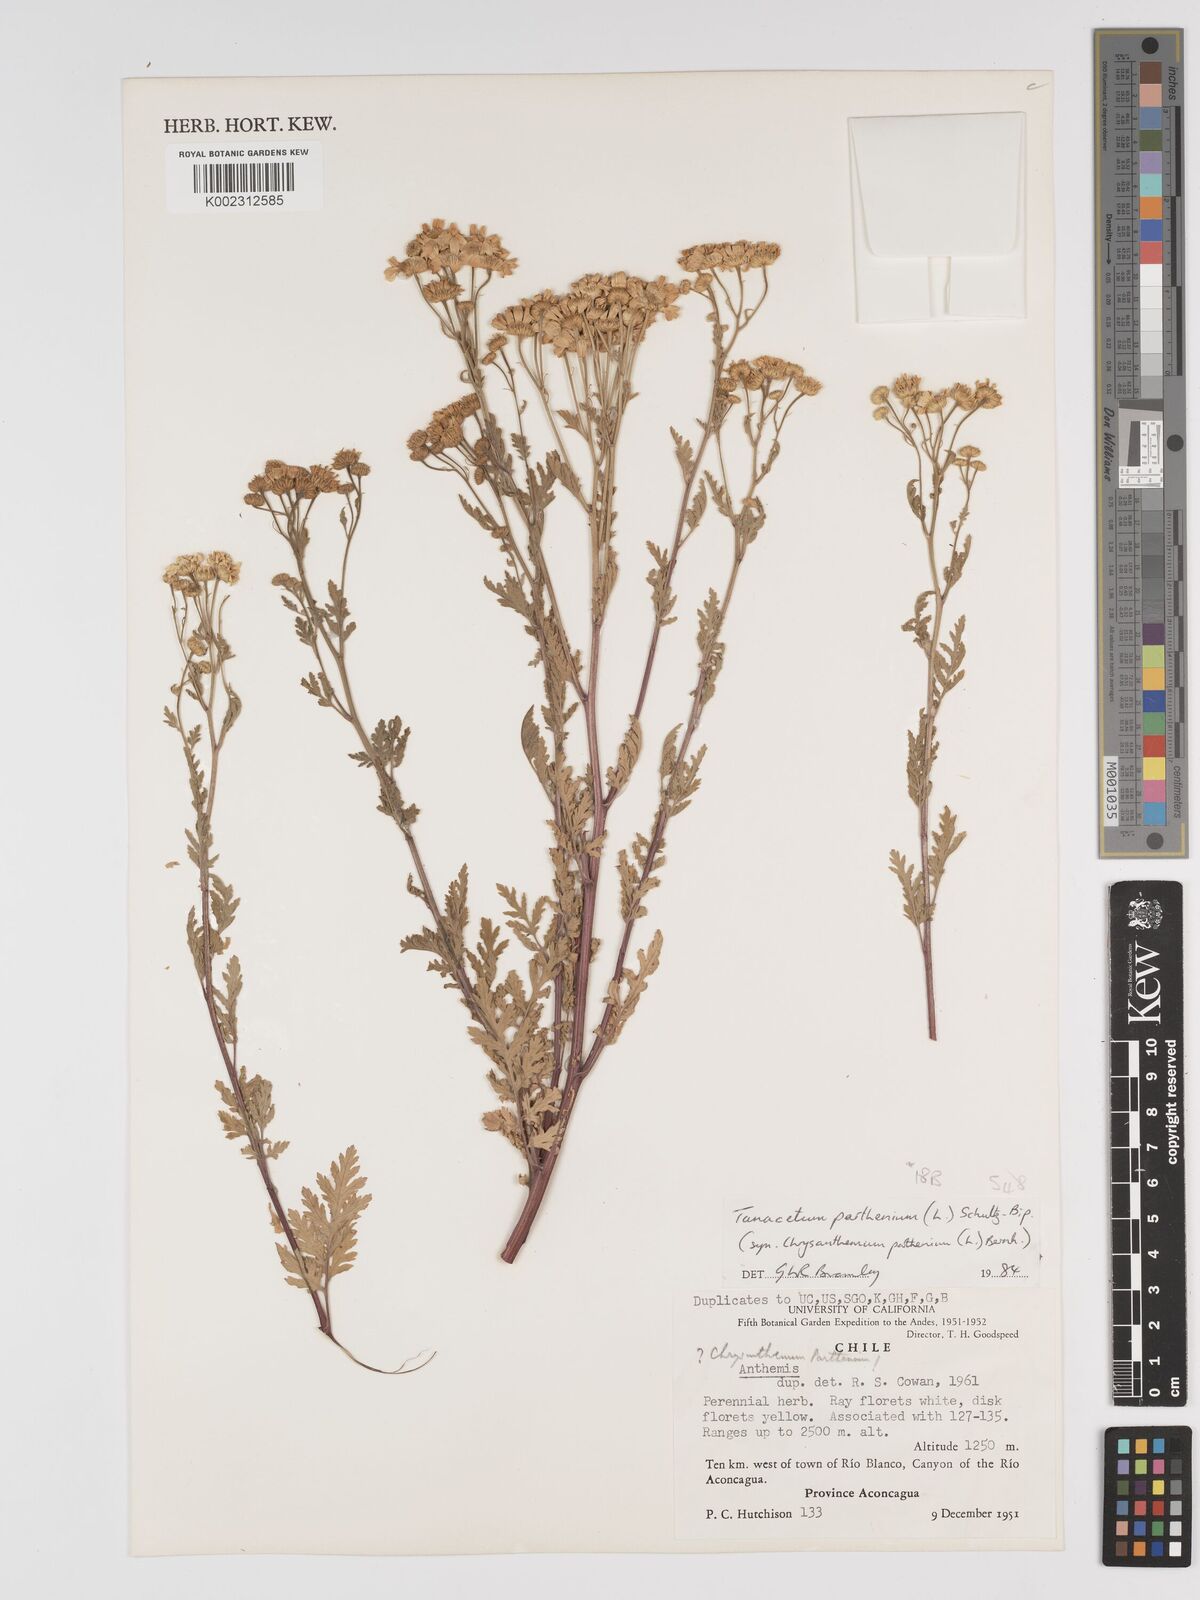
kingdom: Plantae
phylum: Tracheophyta
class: Magnoliopsida
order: Asterales
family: Asteraceae
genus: Tanacetum
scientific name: Tanacetum parthenium
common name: Feverfew
